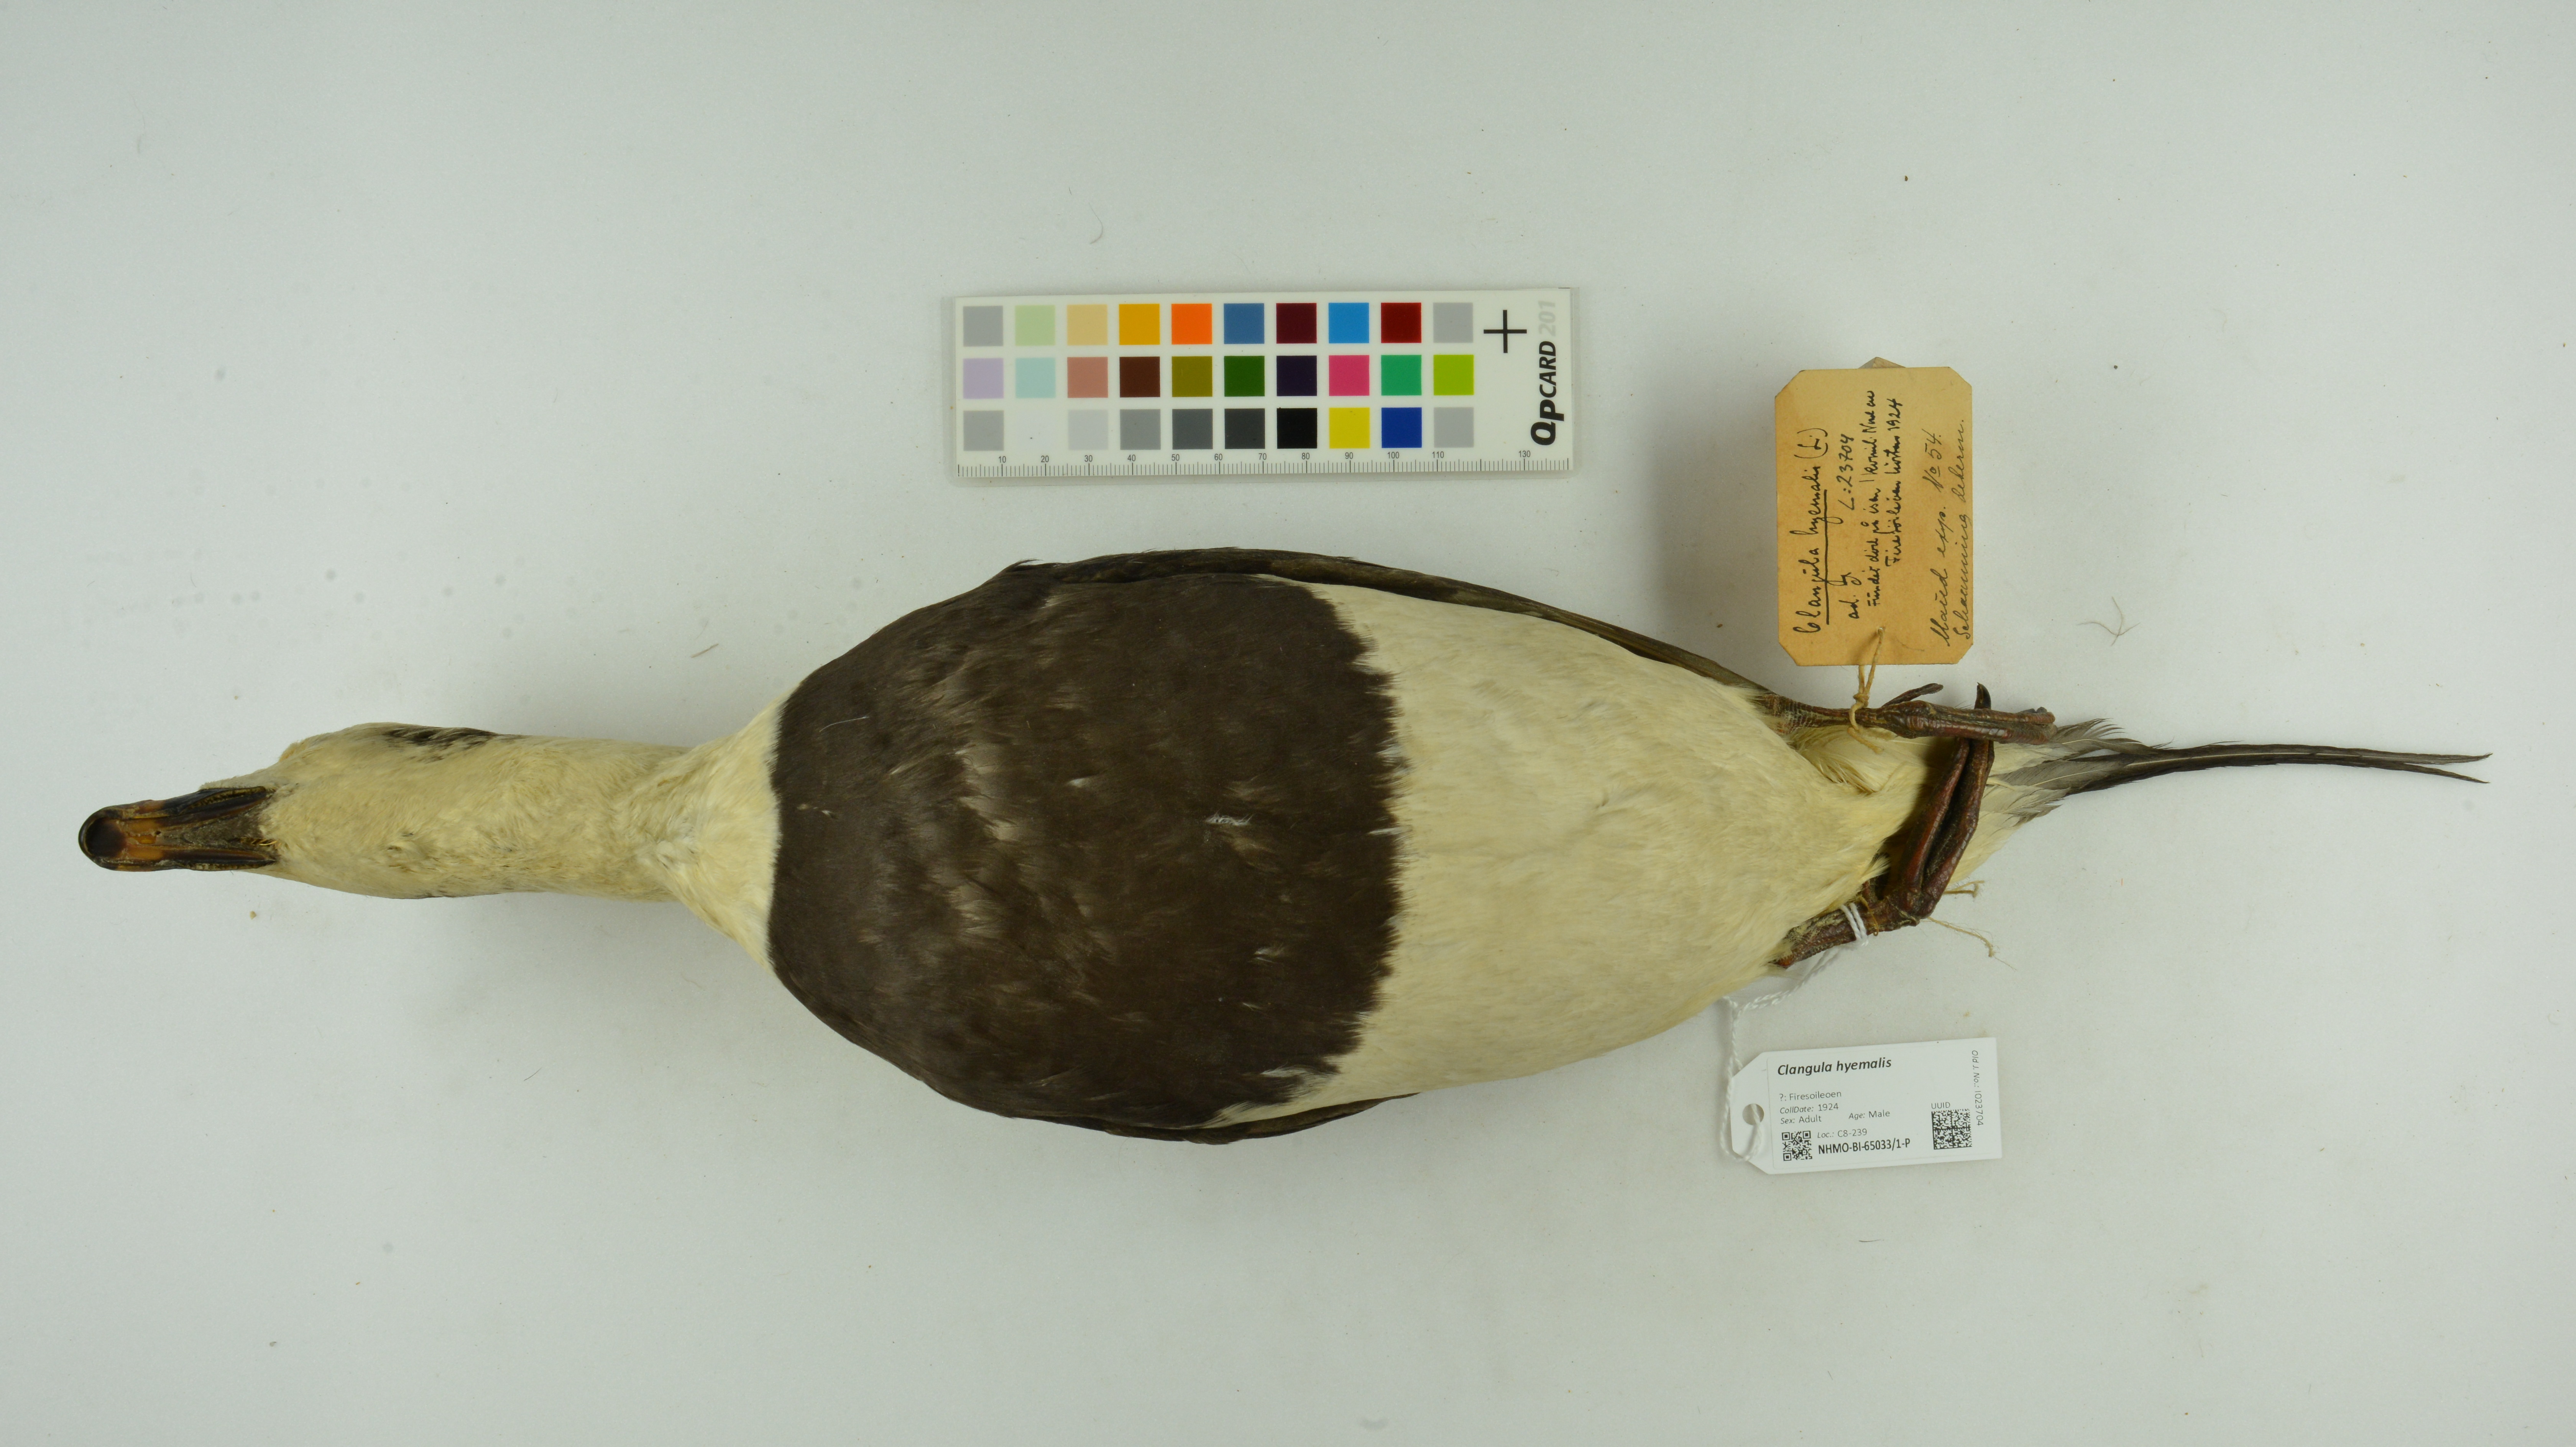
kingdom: Animalia
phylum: Chordata
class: Aves
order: Anseriformes
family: Anatidae
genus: Clangula
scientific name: Clangula hyemalis
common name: Long-tailed duck
